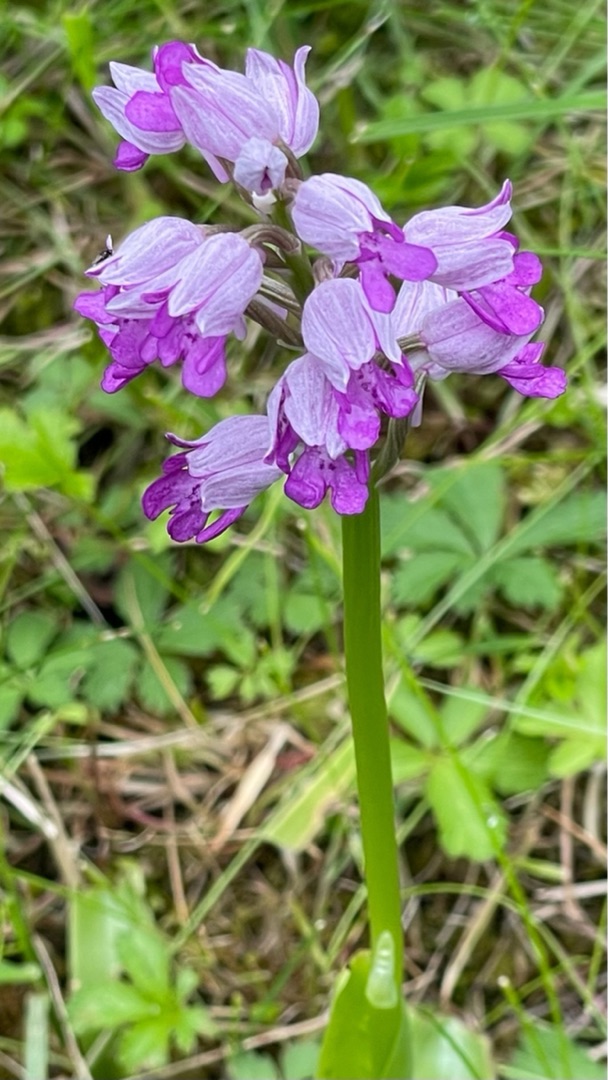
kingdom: Plantae
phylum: Tracheophyta
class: Liliopsida
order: Asparagales
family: Orchidaceae
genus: Orchis
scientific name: Orchis militaris
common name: Ridder-gøgeurt
